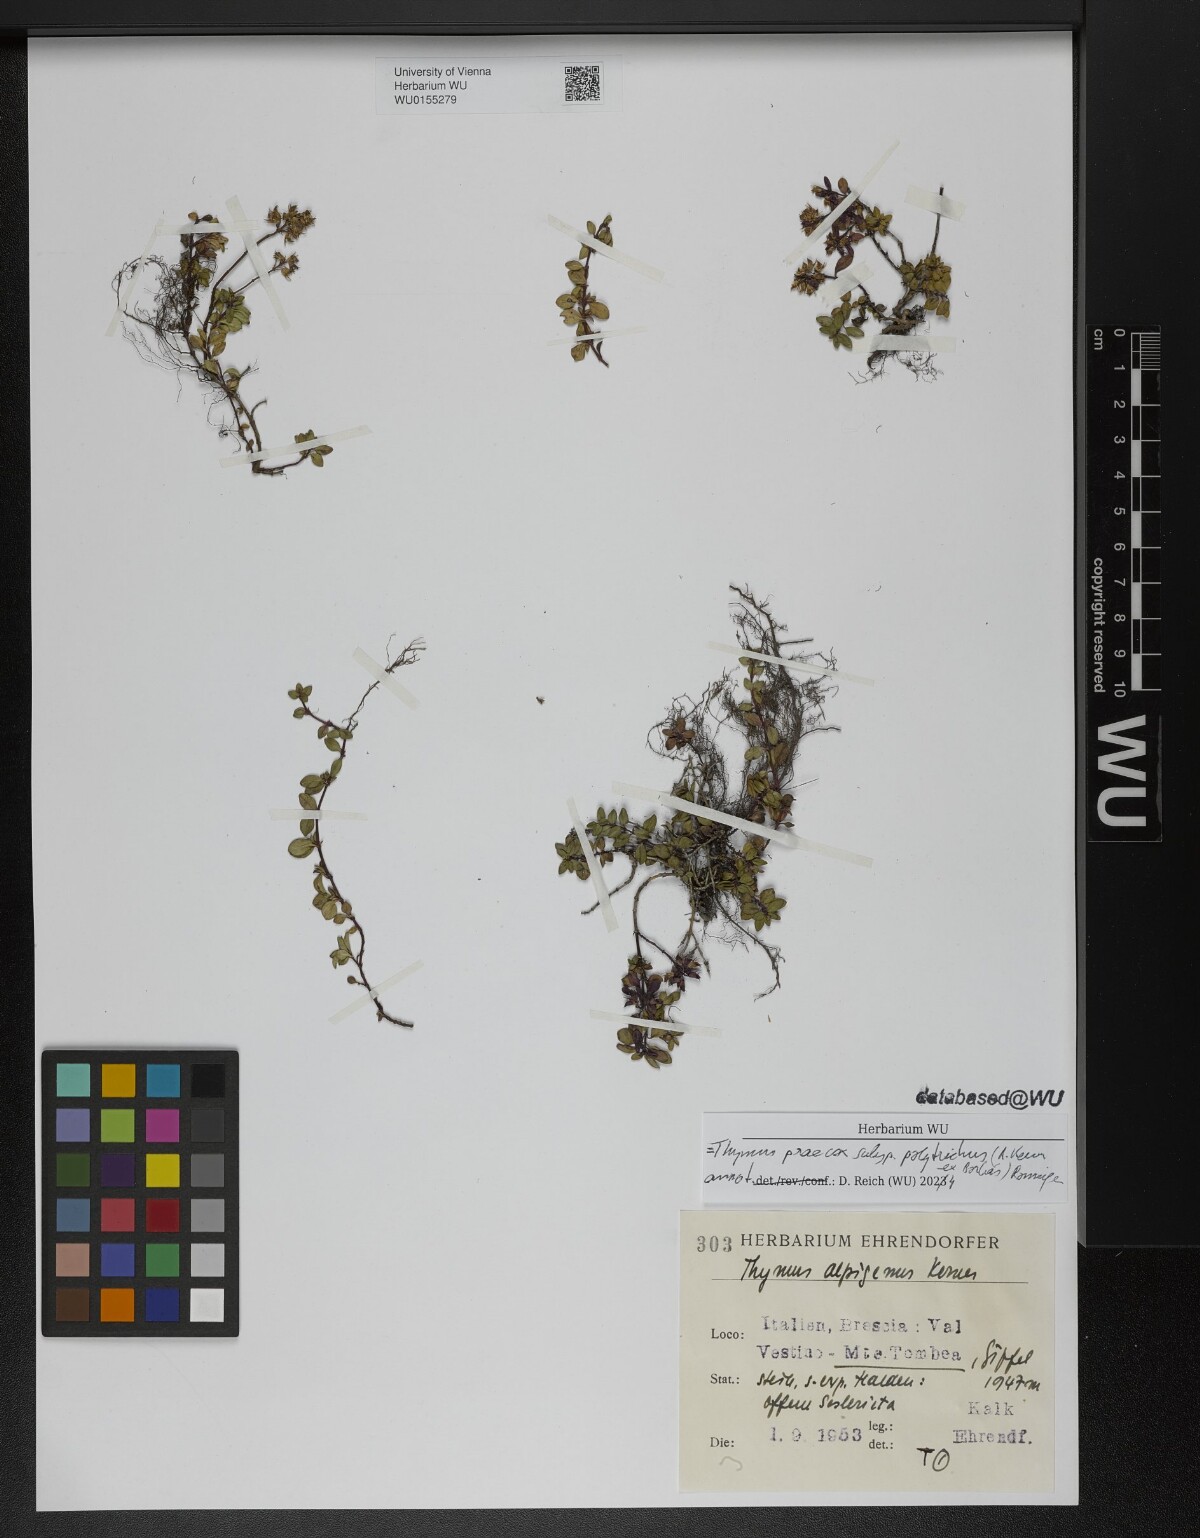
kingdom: Plantae
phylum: Tracheophyta
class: Magnoliopsida
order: Lamiales
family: Lamiaceae
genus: Thymus
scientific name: Thymus praecox
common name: Wild thyme
